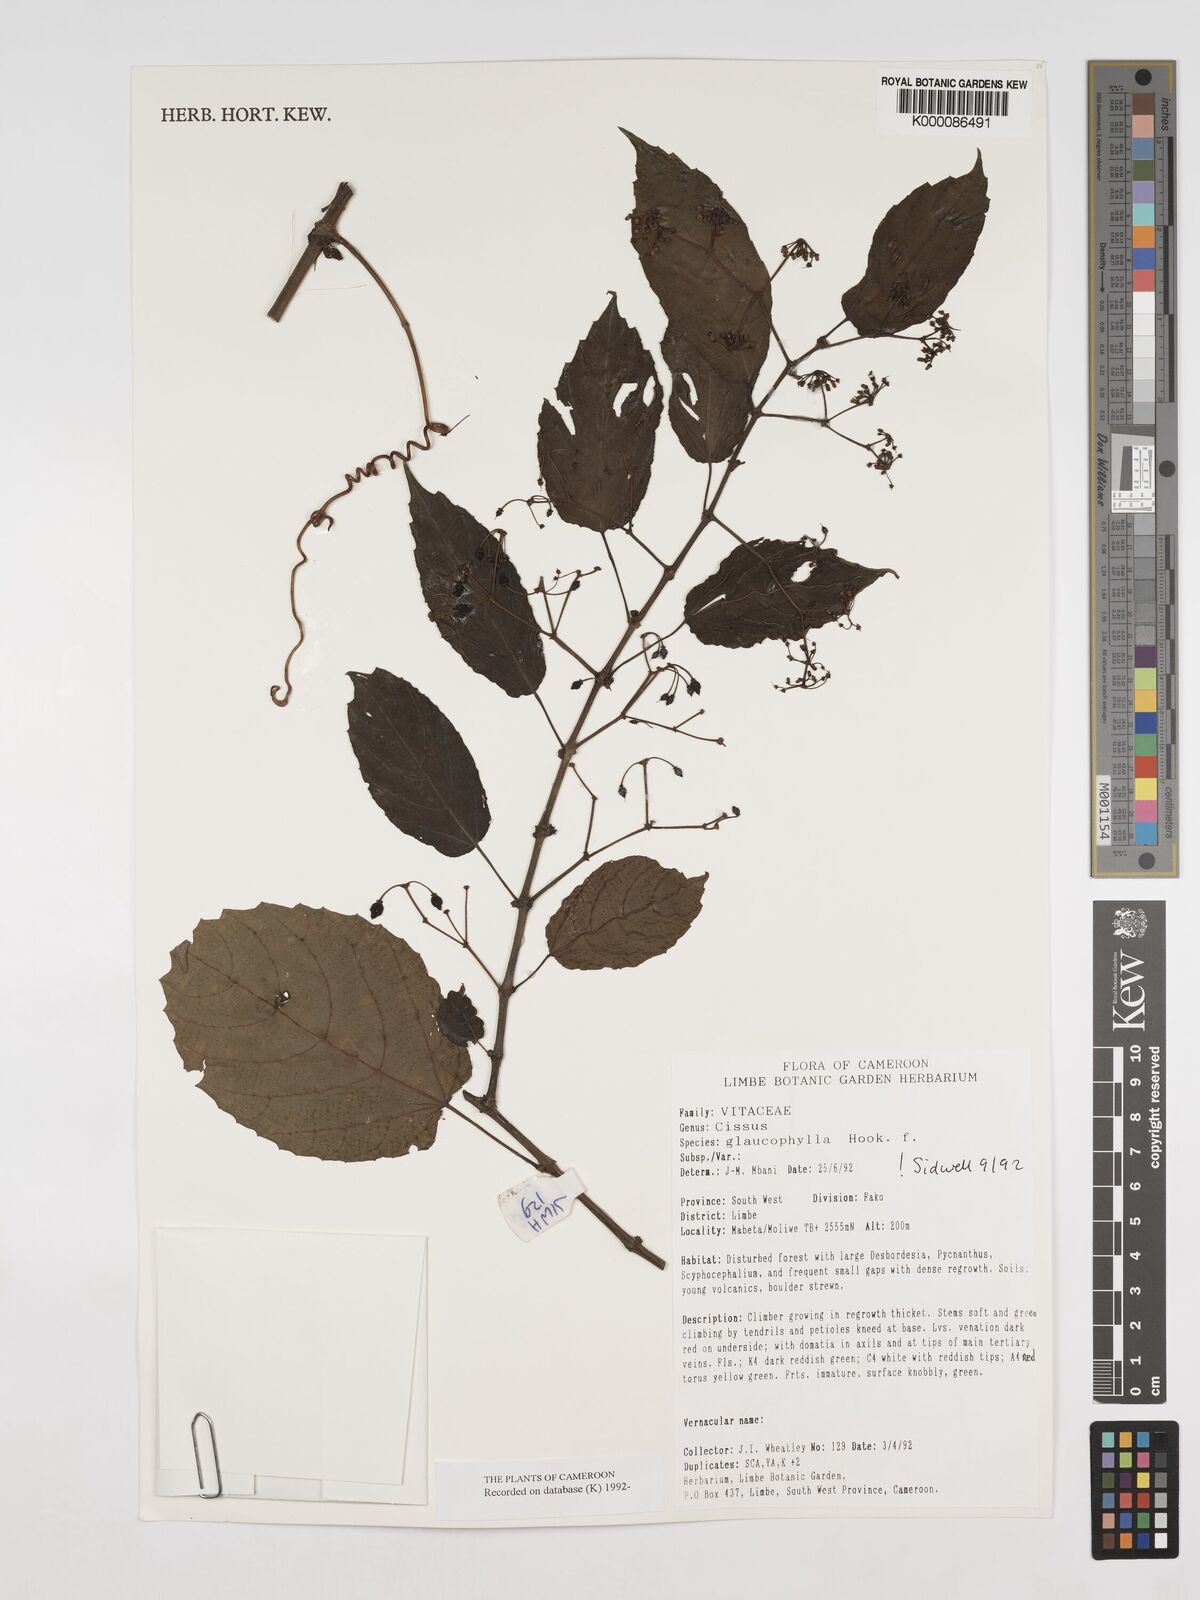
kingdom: Plantae
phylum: Tracheophyta
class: Magnoliopsida
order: Vitales
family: Vitaceae
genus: Cissus
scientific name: Cissus glaucophylla
